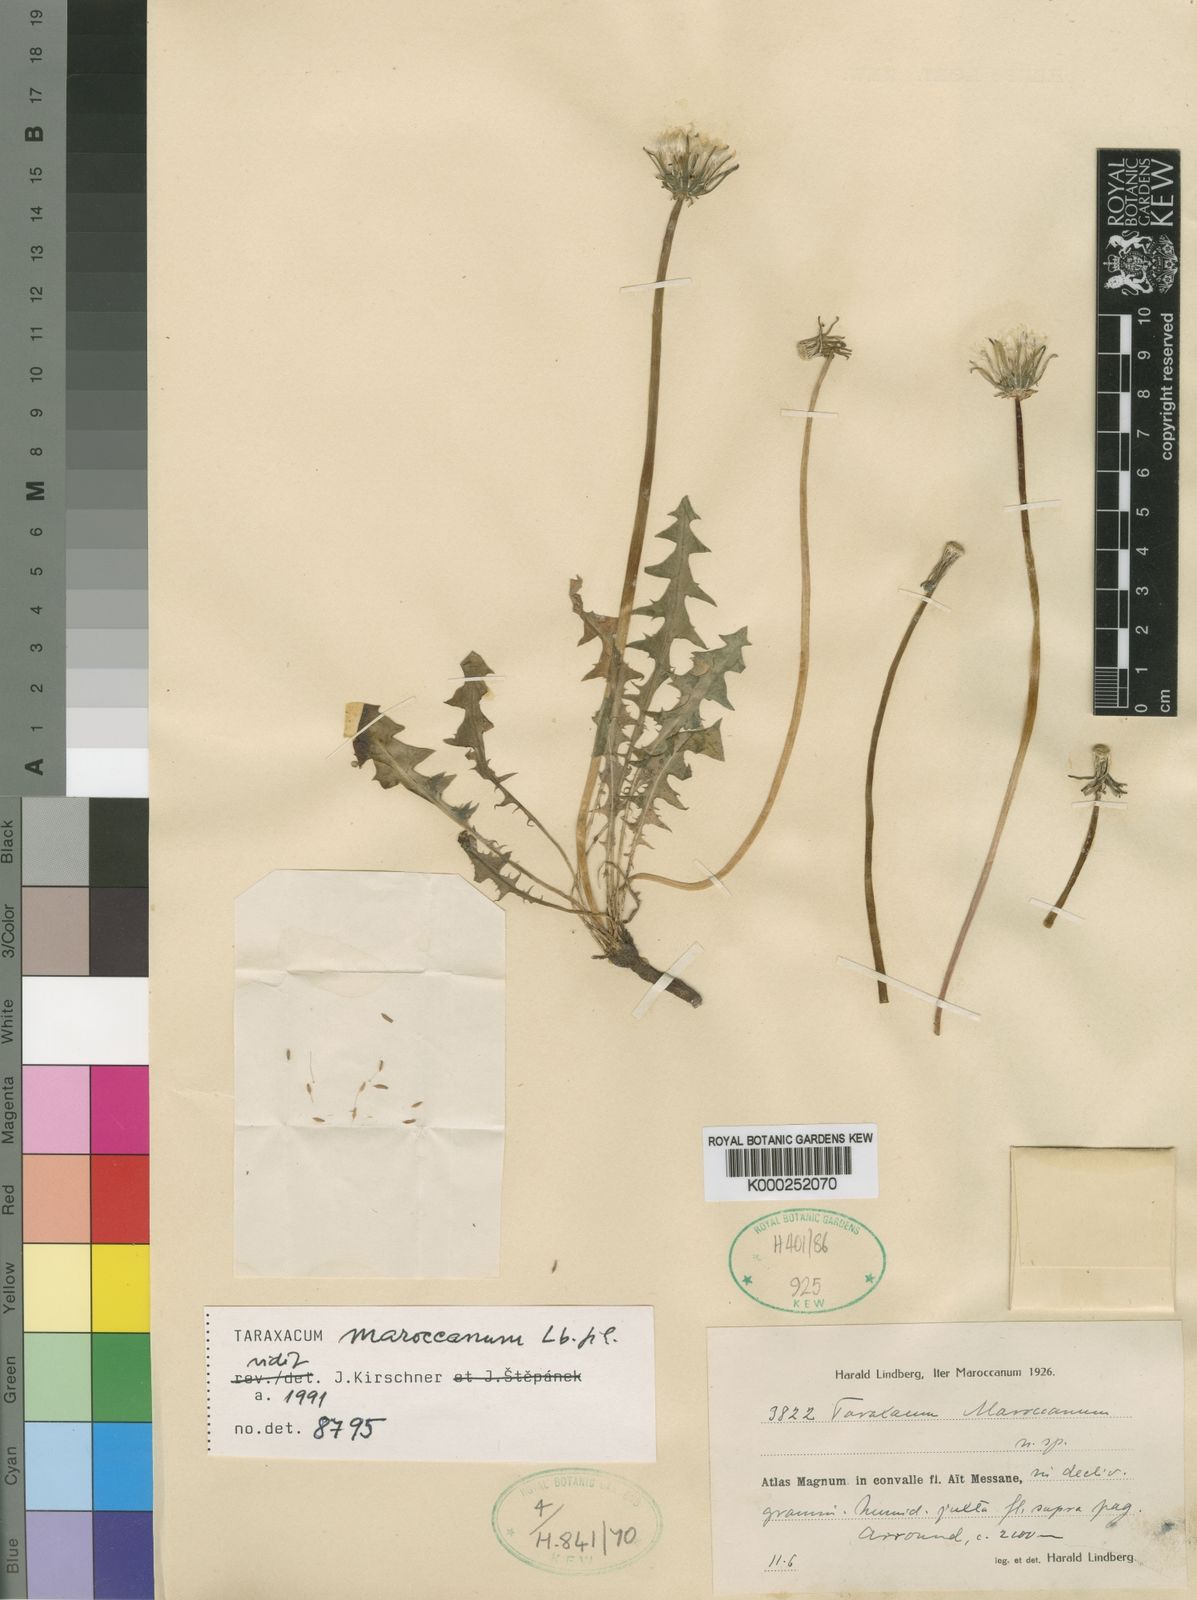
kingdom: Plantae
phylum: Tracheophyta
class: Magnoliopsida
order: Asterales
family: Asteraceae
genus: Taraxacum
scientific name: Taraxacum maroccanum
